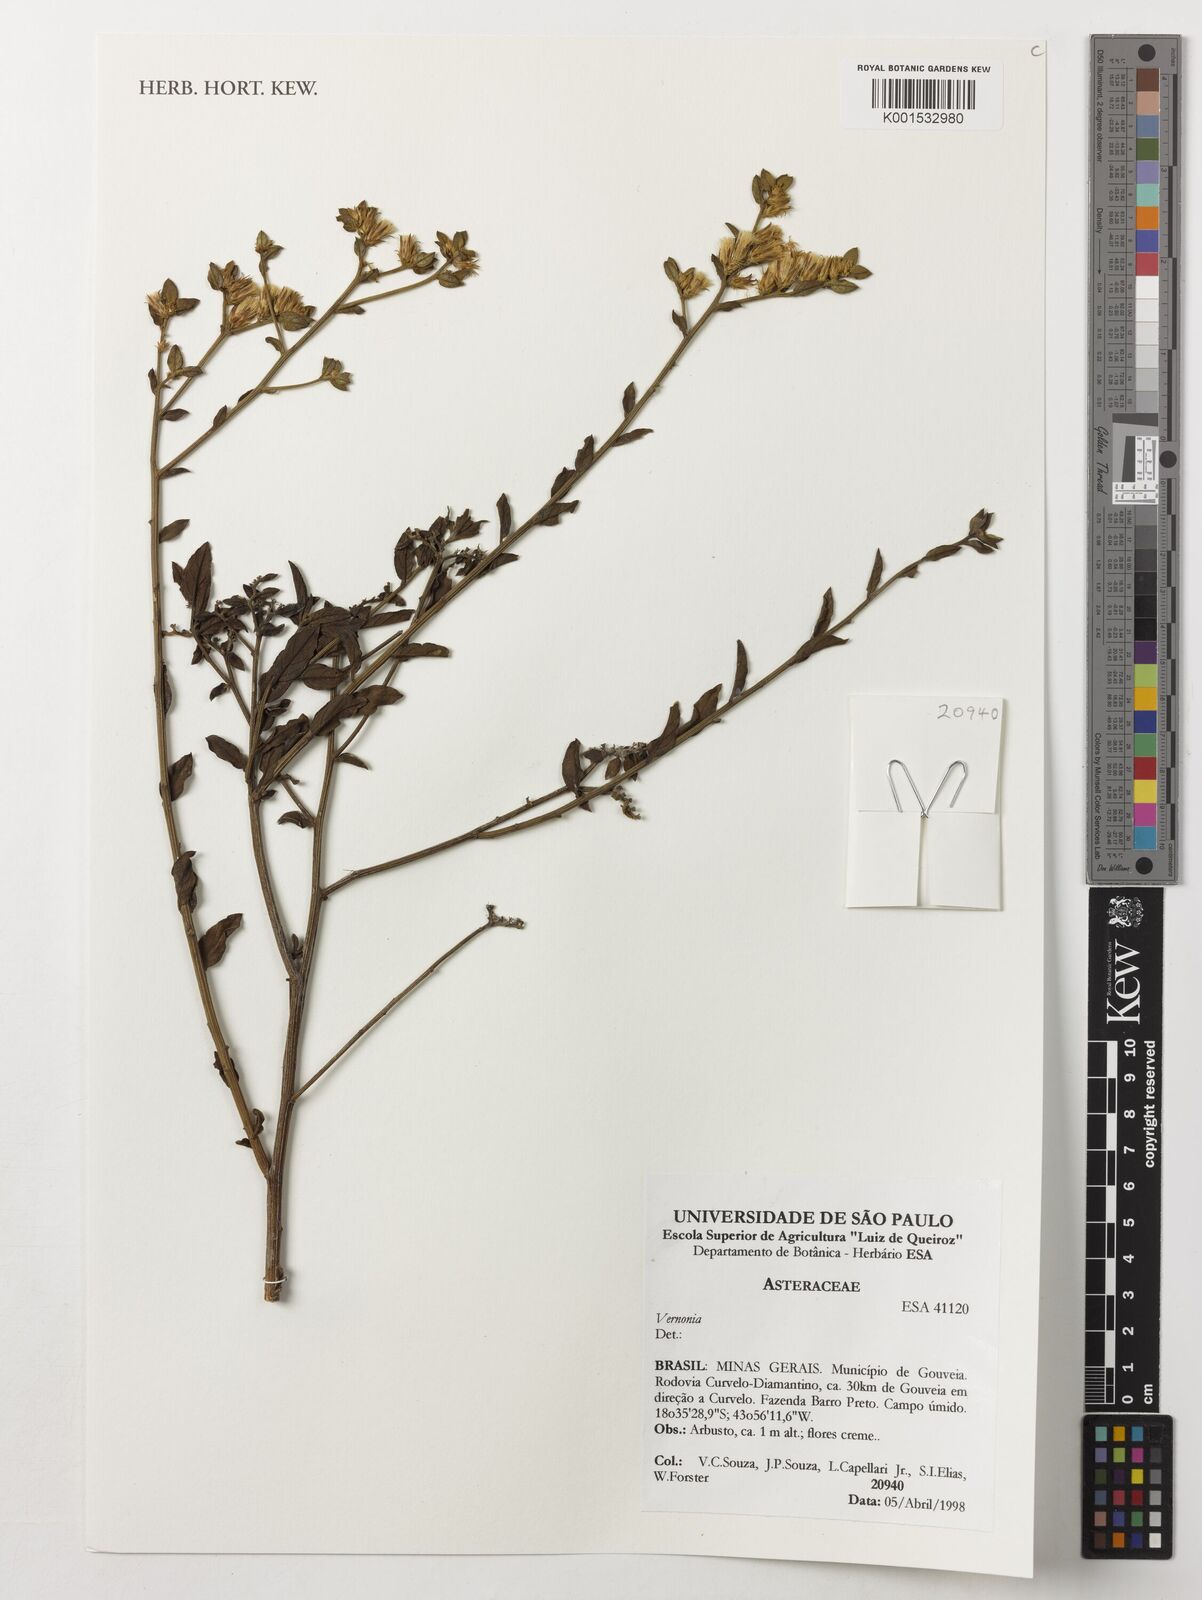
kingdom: Plantae
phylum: Tracheophyta
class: Magnoliopsida
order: Asterales
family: Asteraceae
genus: Vernonia
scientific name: Vernonia
